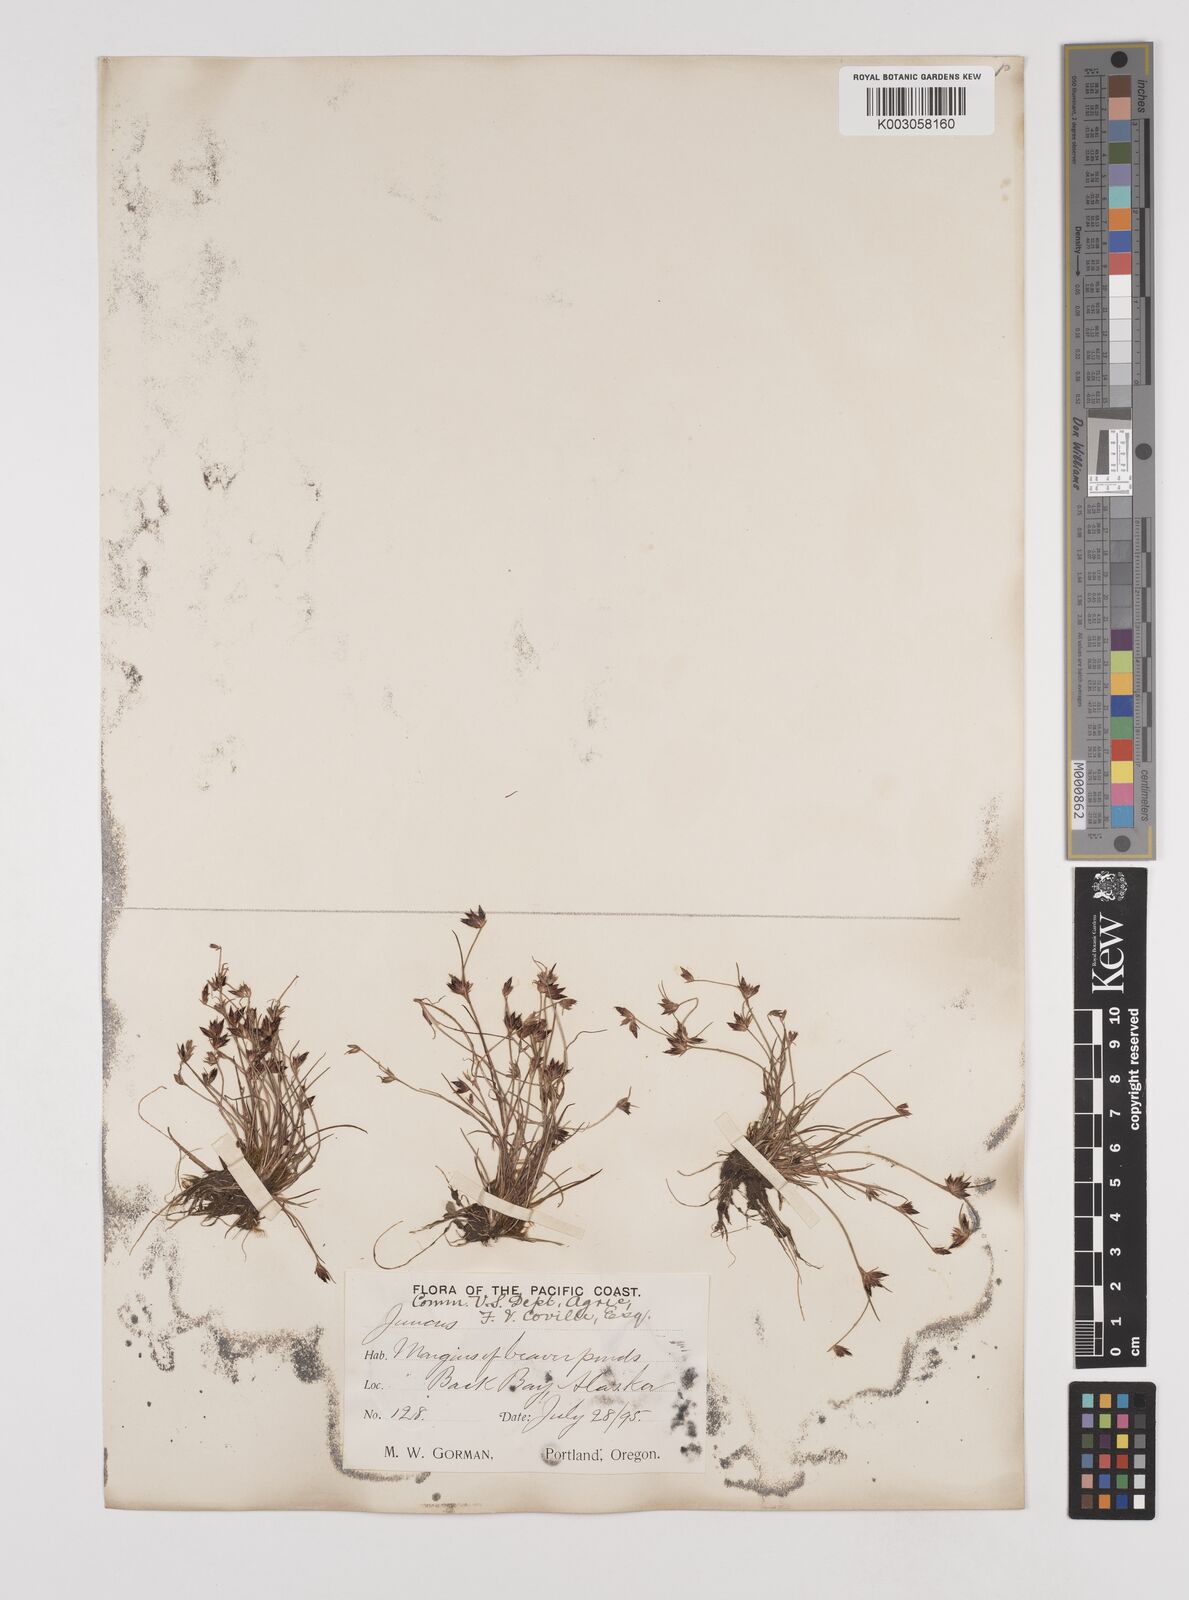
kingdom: Plantae
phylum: Tracheophyta
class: Liliopsida
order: Poales
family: Juncaceae
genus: Juncus
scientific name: Juncus
